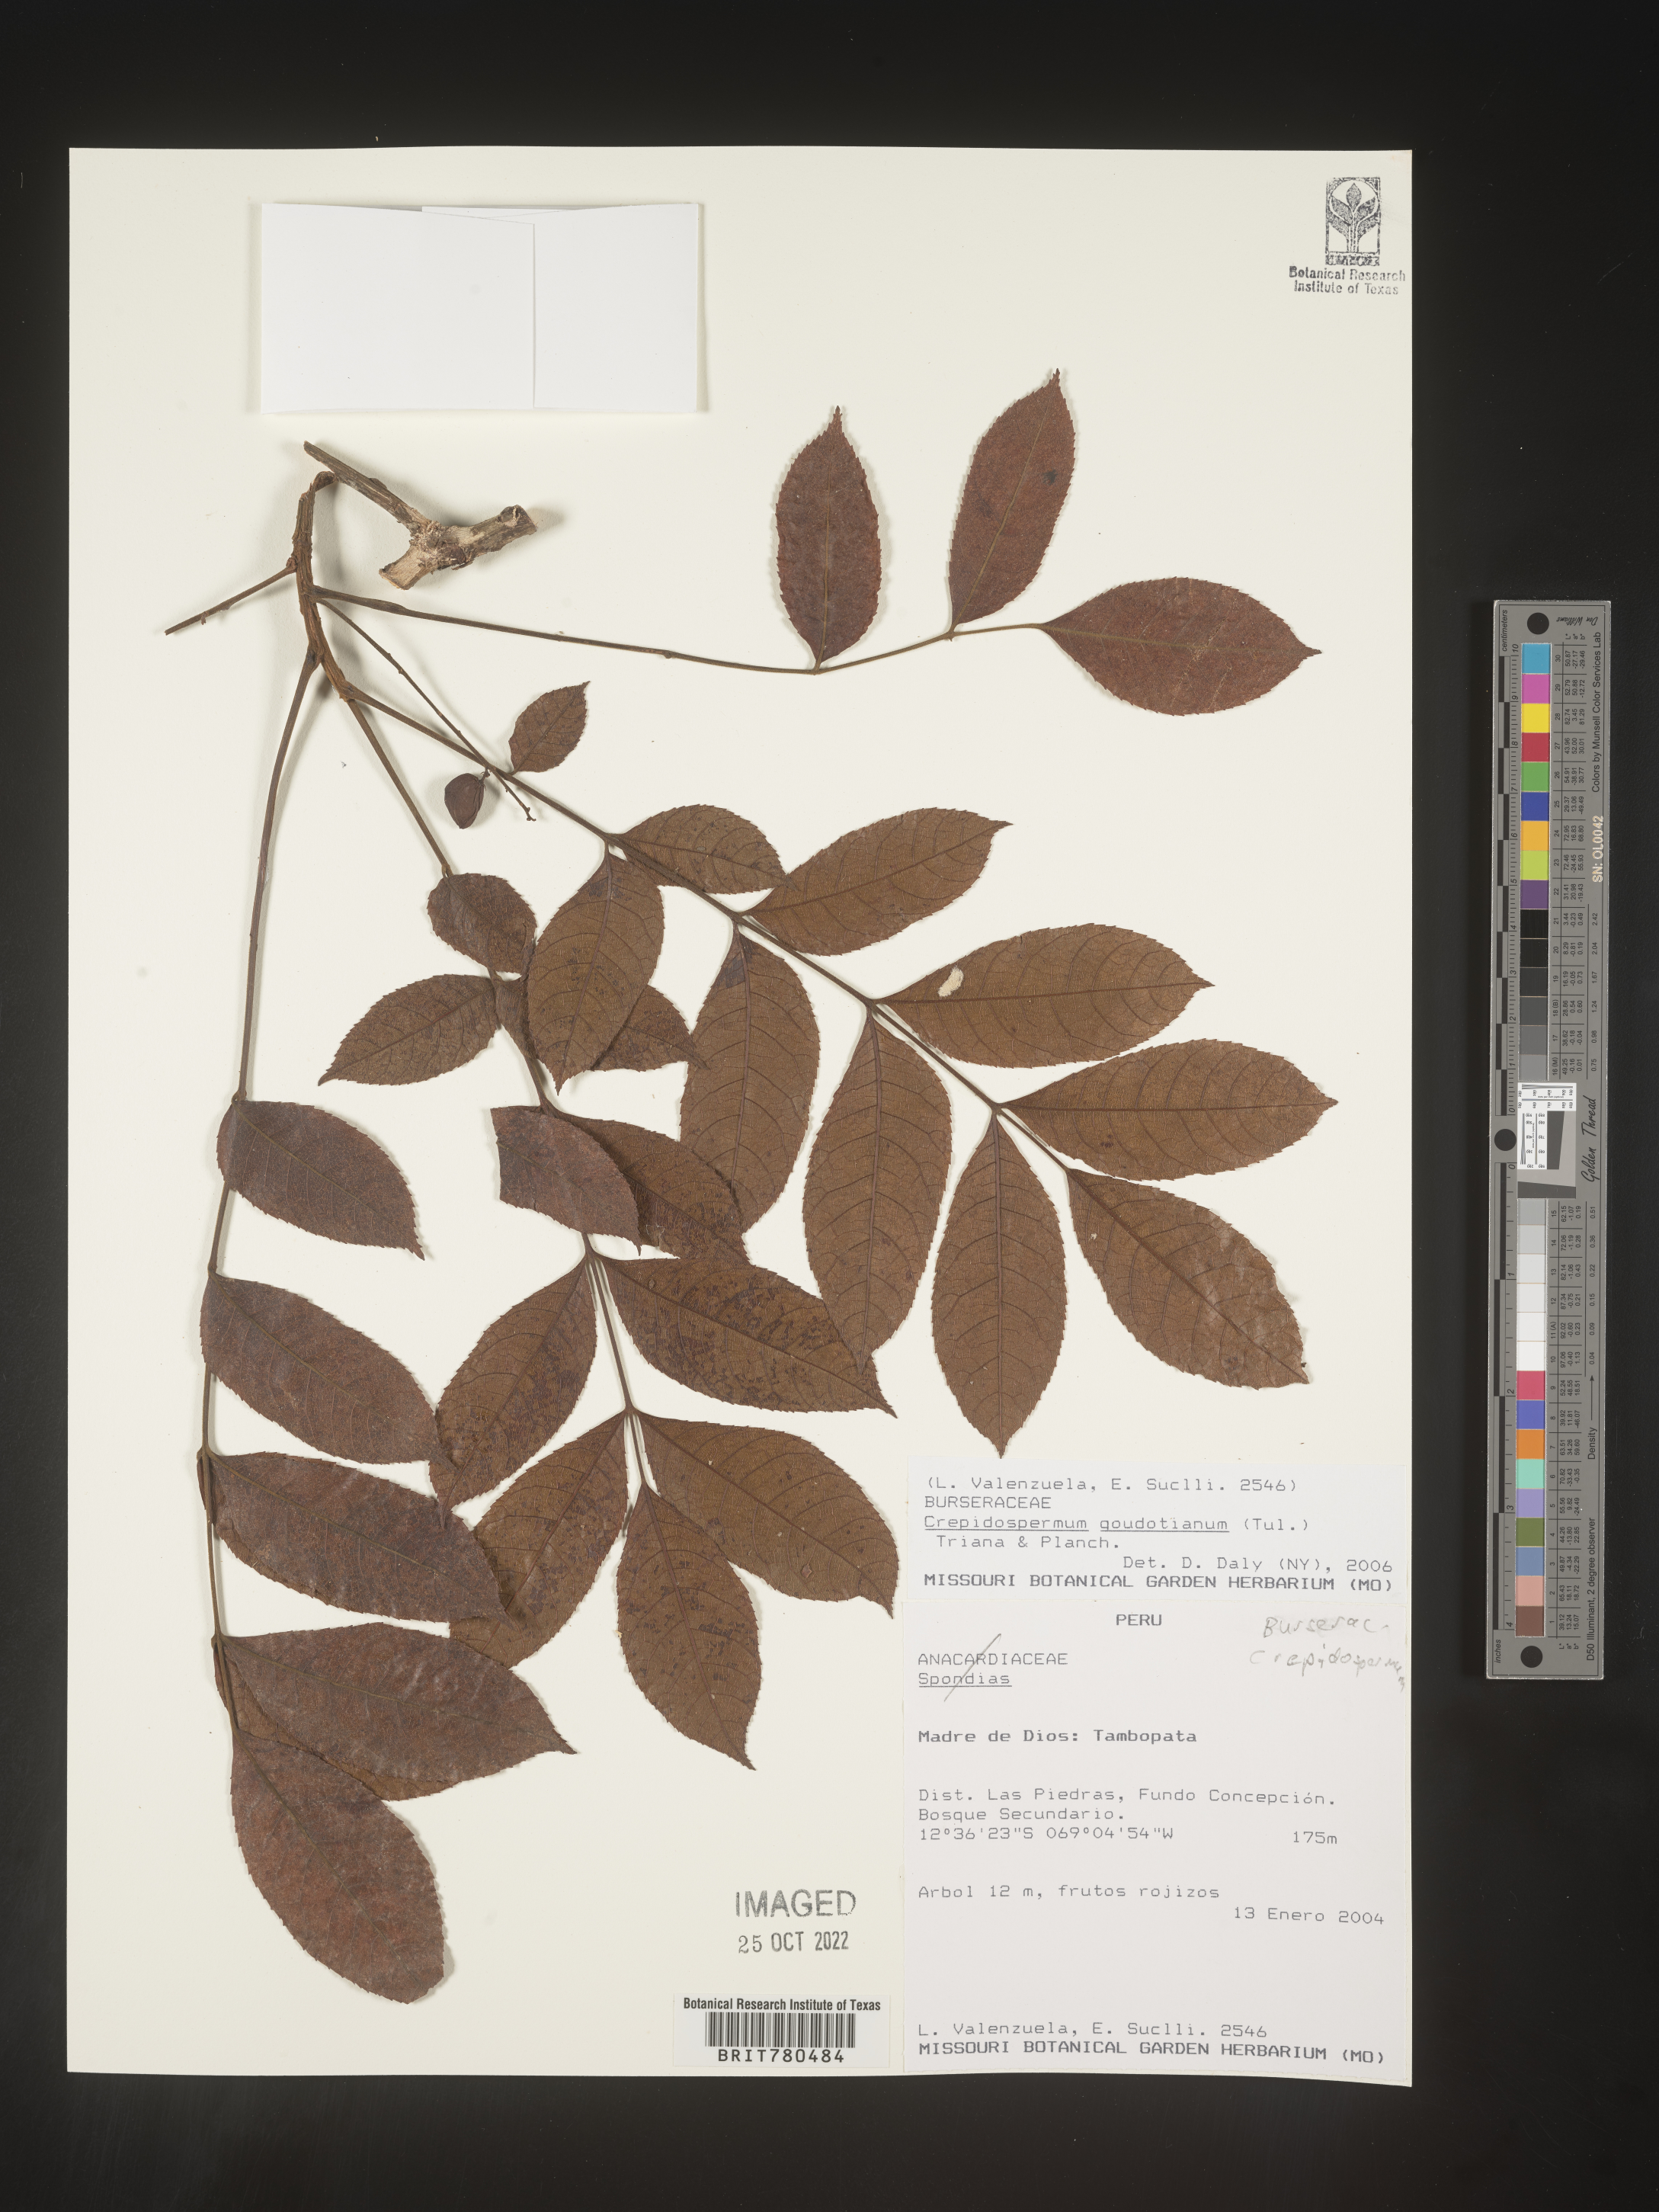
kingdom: Plantae
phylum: Tracheophyta
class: Magnoliopsida
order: Sapindales
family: Burseraceae
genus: Crepidospermum
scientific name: Crepidospermum
